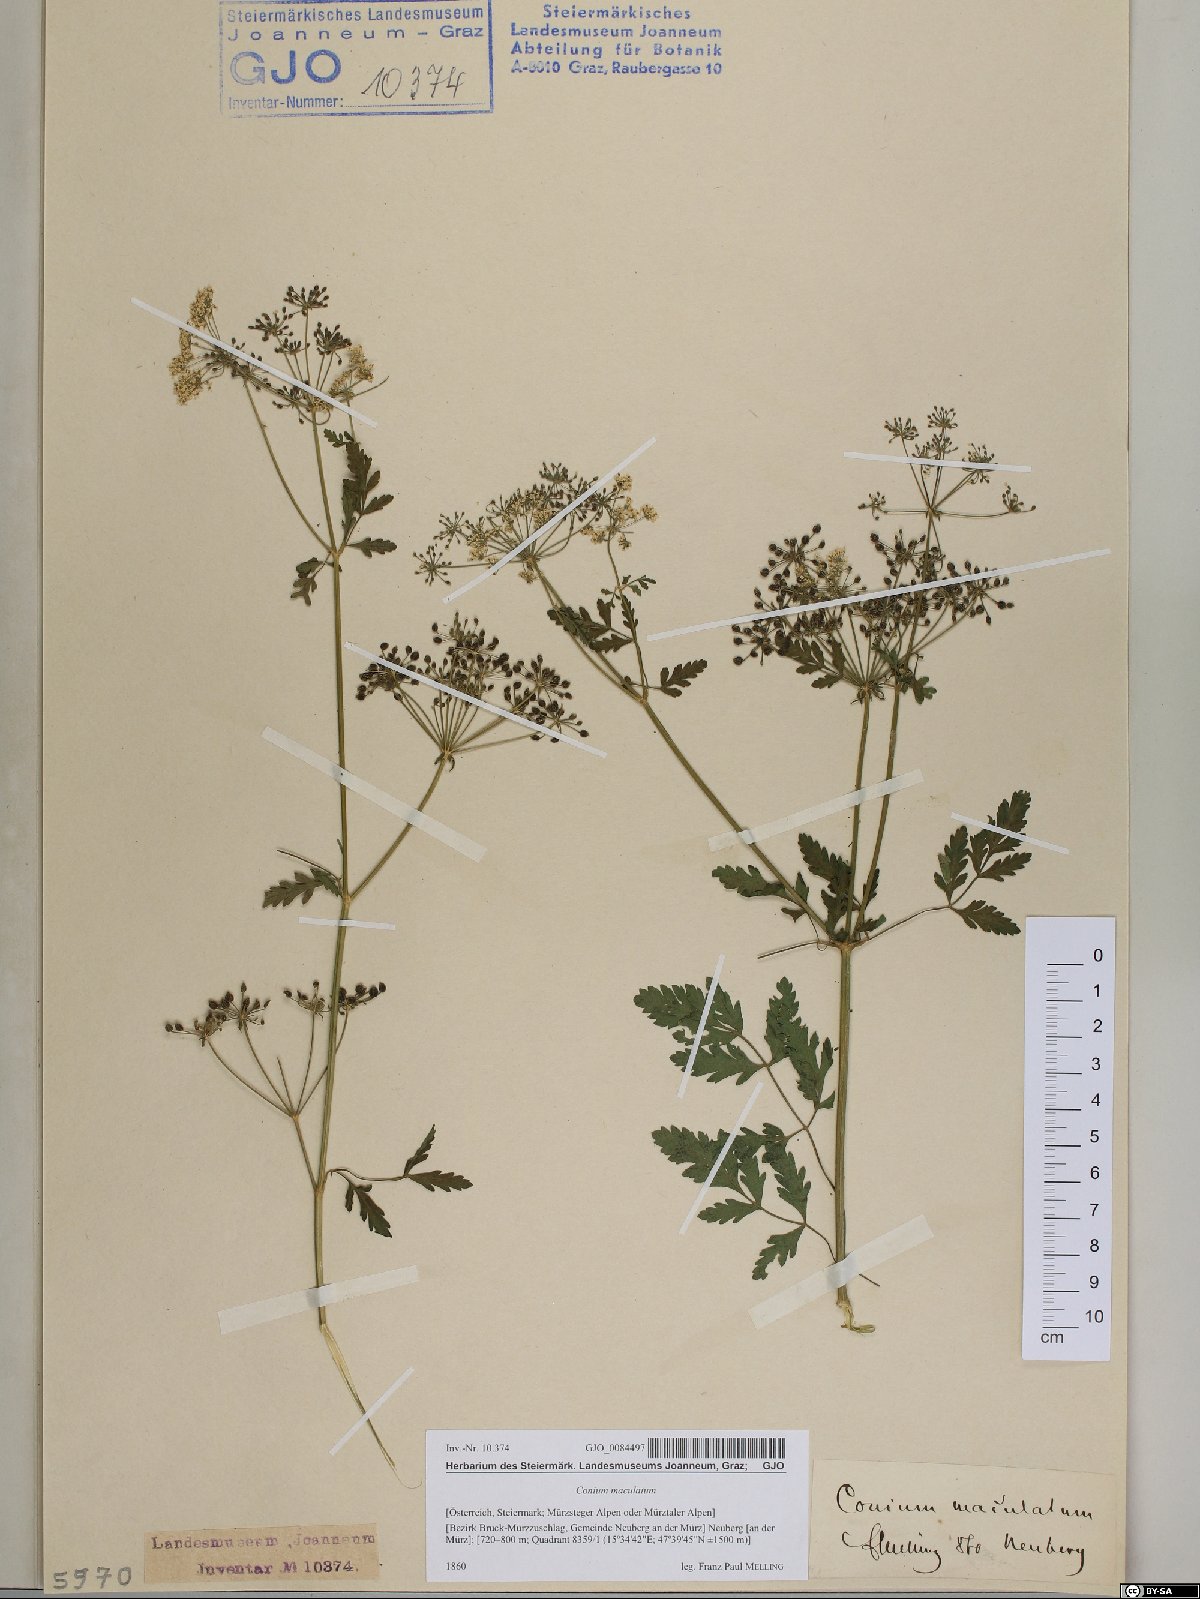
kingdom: Plantae
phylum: Tracheophyta
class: Magnoliopsida
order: Apiales
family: Apiaceae
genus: Conium
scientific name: Conium maculatum
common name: Hemlock
